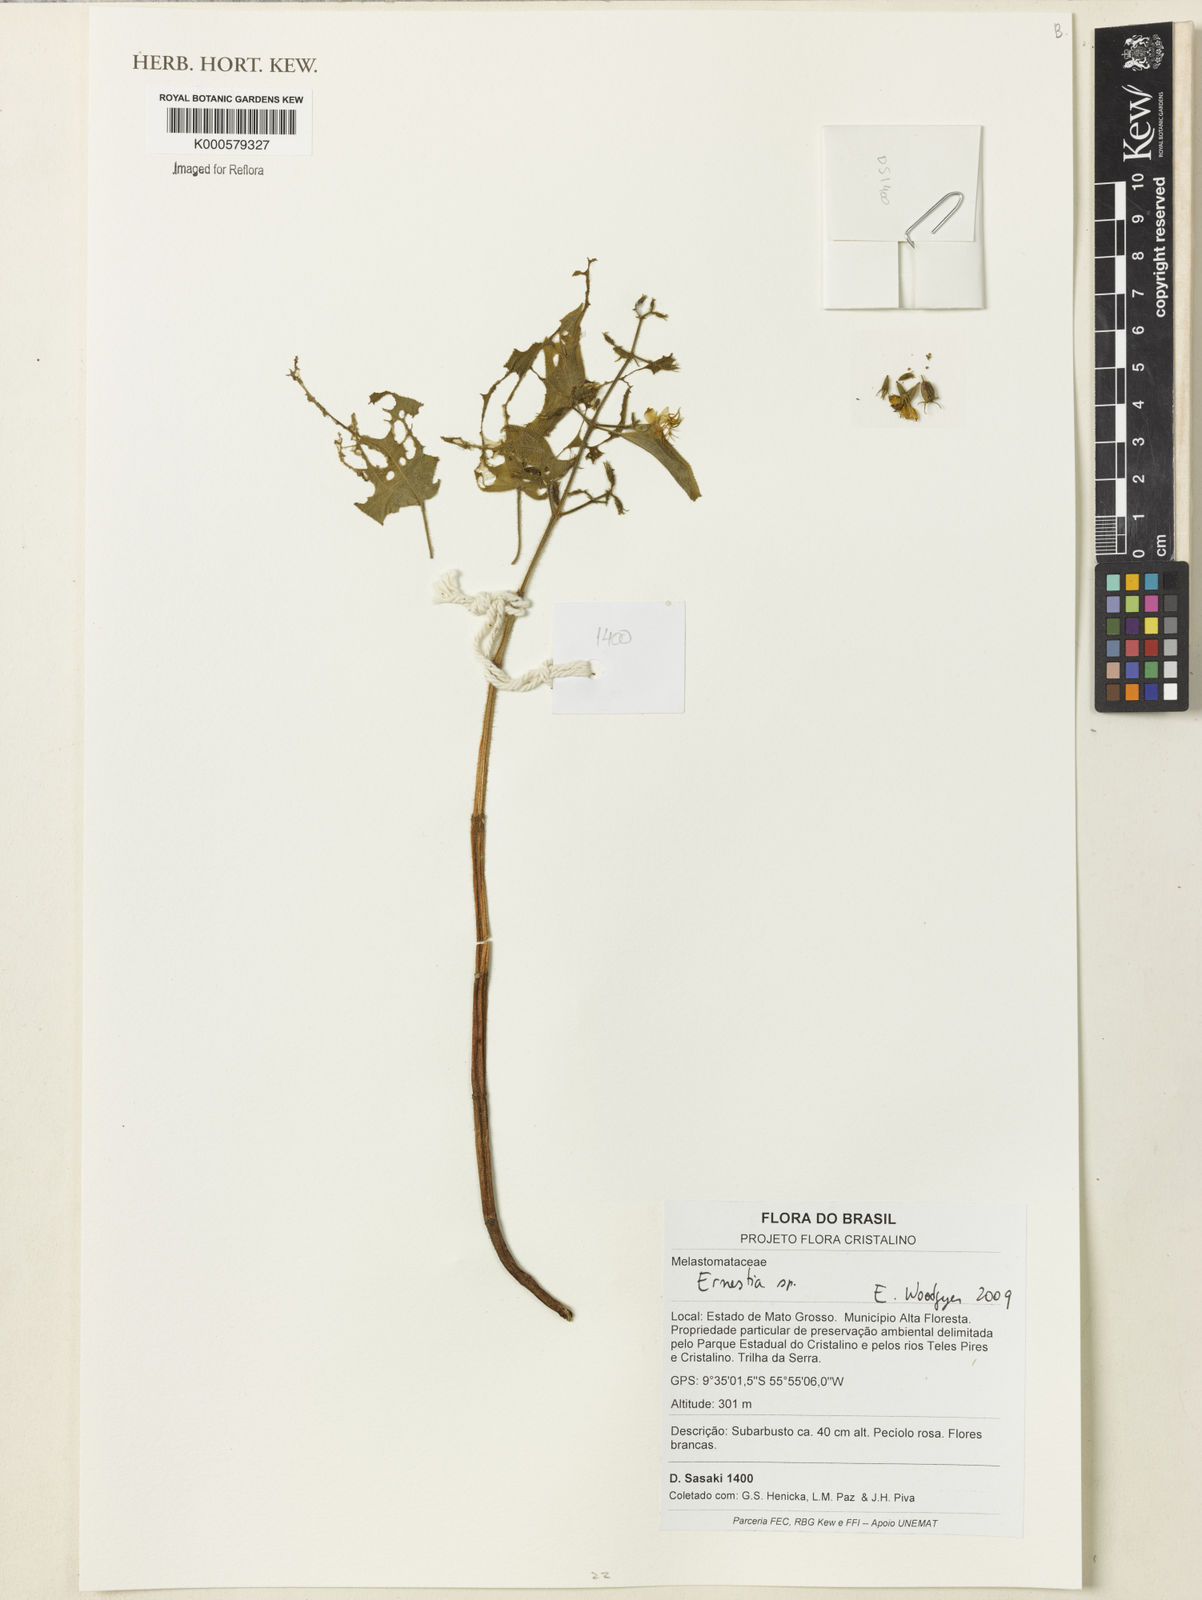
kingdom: Plantae
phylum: Tracheophyta
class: Magnoliopsida
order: Myrtales
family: Melastomataceae
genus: Ernestia
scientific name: Ernestia
